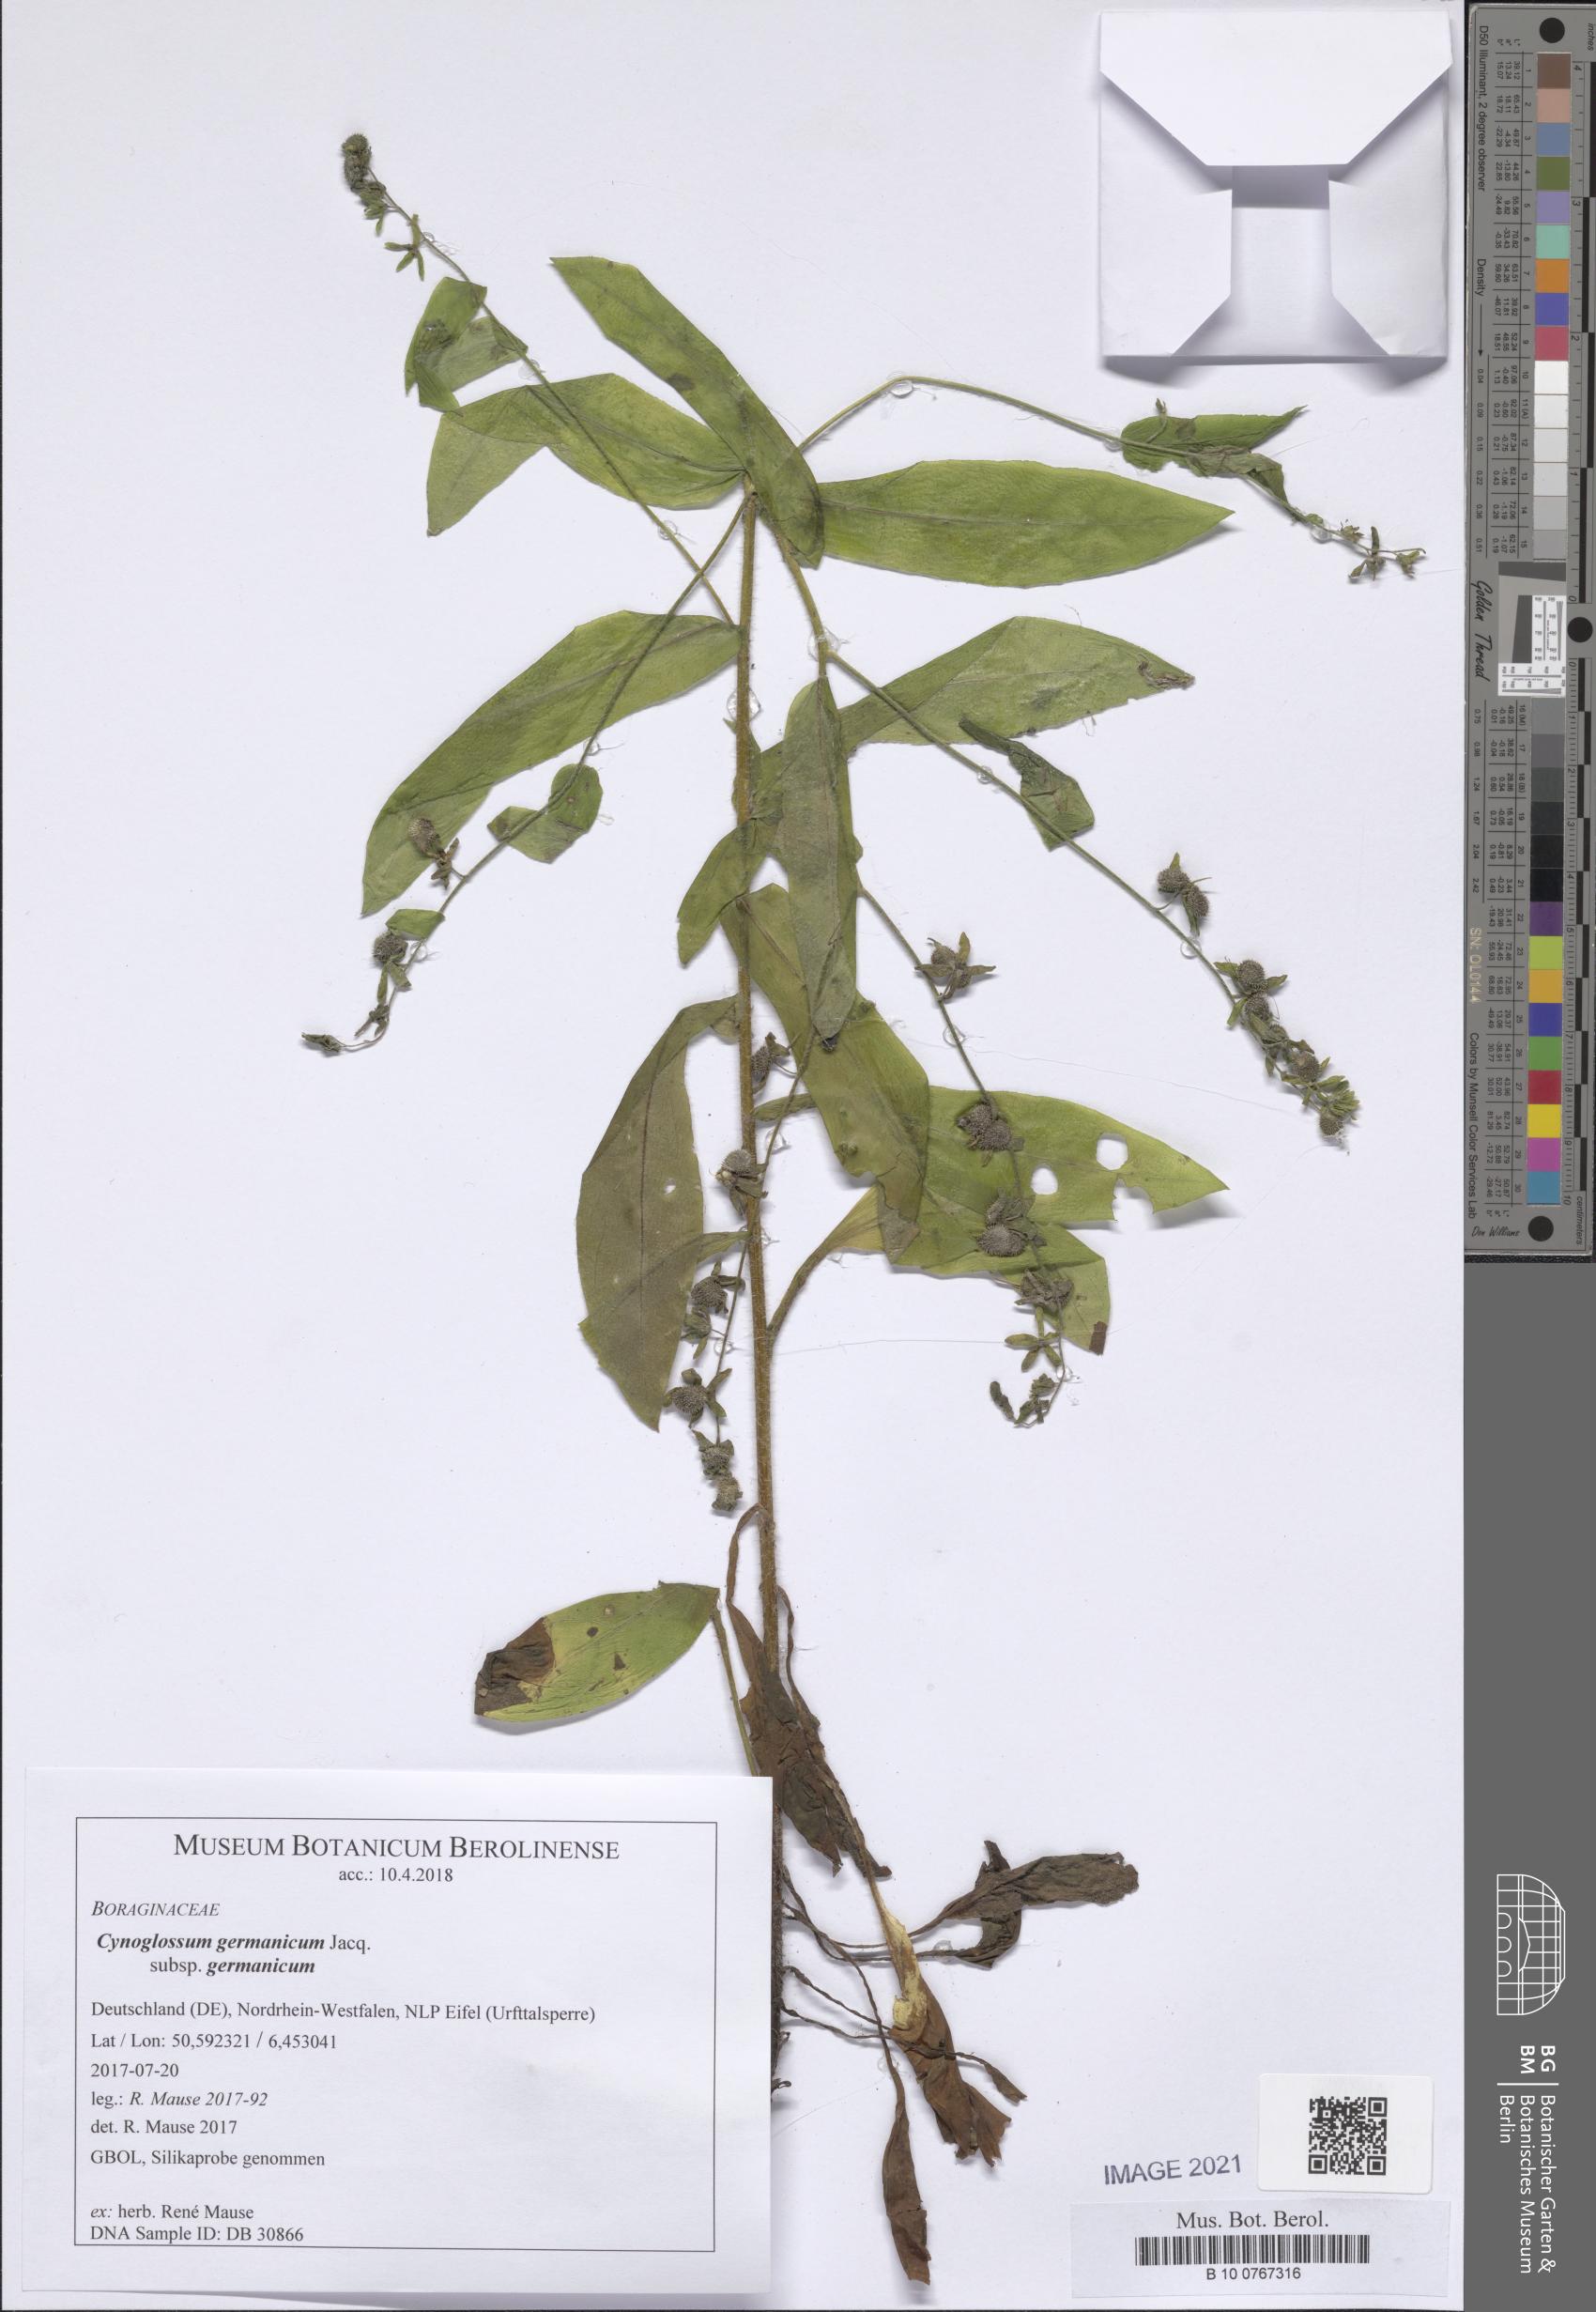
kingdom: Plantae
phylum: Tracheophyta
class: Magnoliopsida
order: Boraginales
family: Boraginaceae
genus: Cynoglossum
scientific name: Cynoglossum germanicum
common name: Green hound's-tongue
